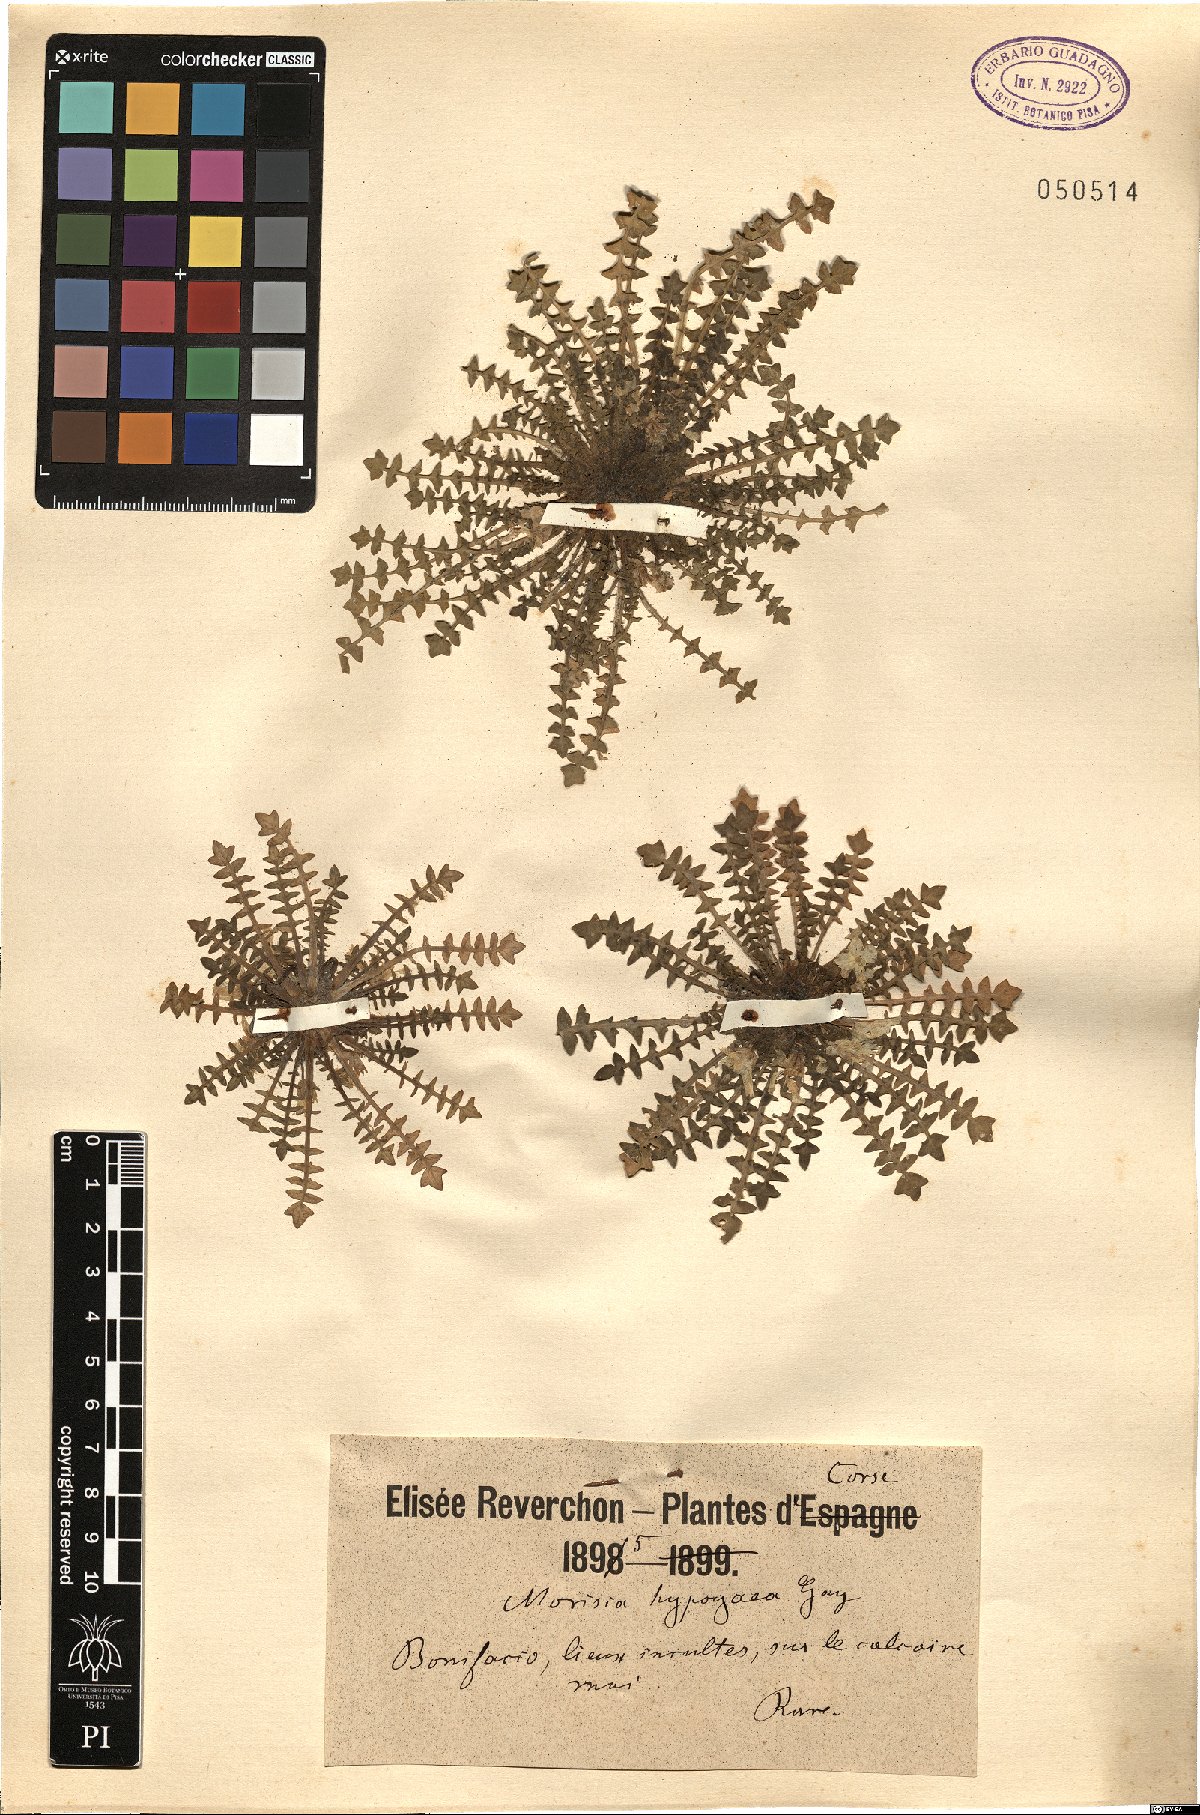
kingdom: Plantae
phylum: Tracheophyta
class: Magnoliopsida
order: Brassicales
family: Brassicaceae
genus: Morisia
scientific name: Morisia hypogaea
